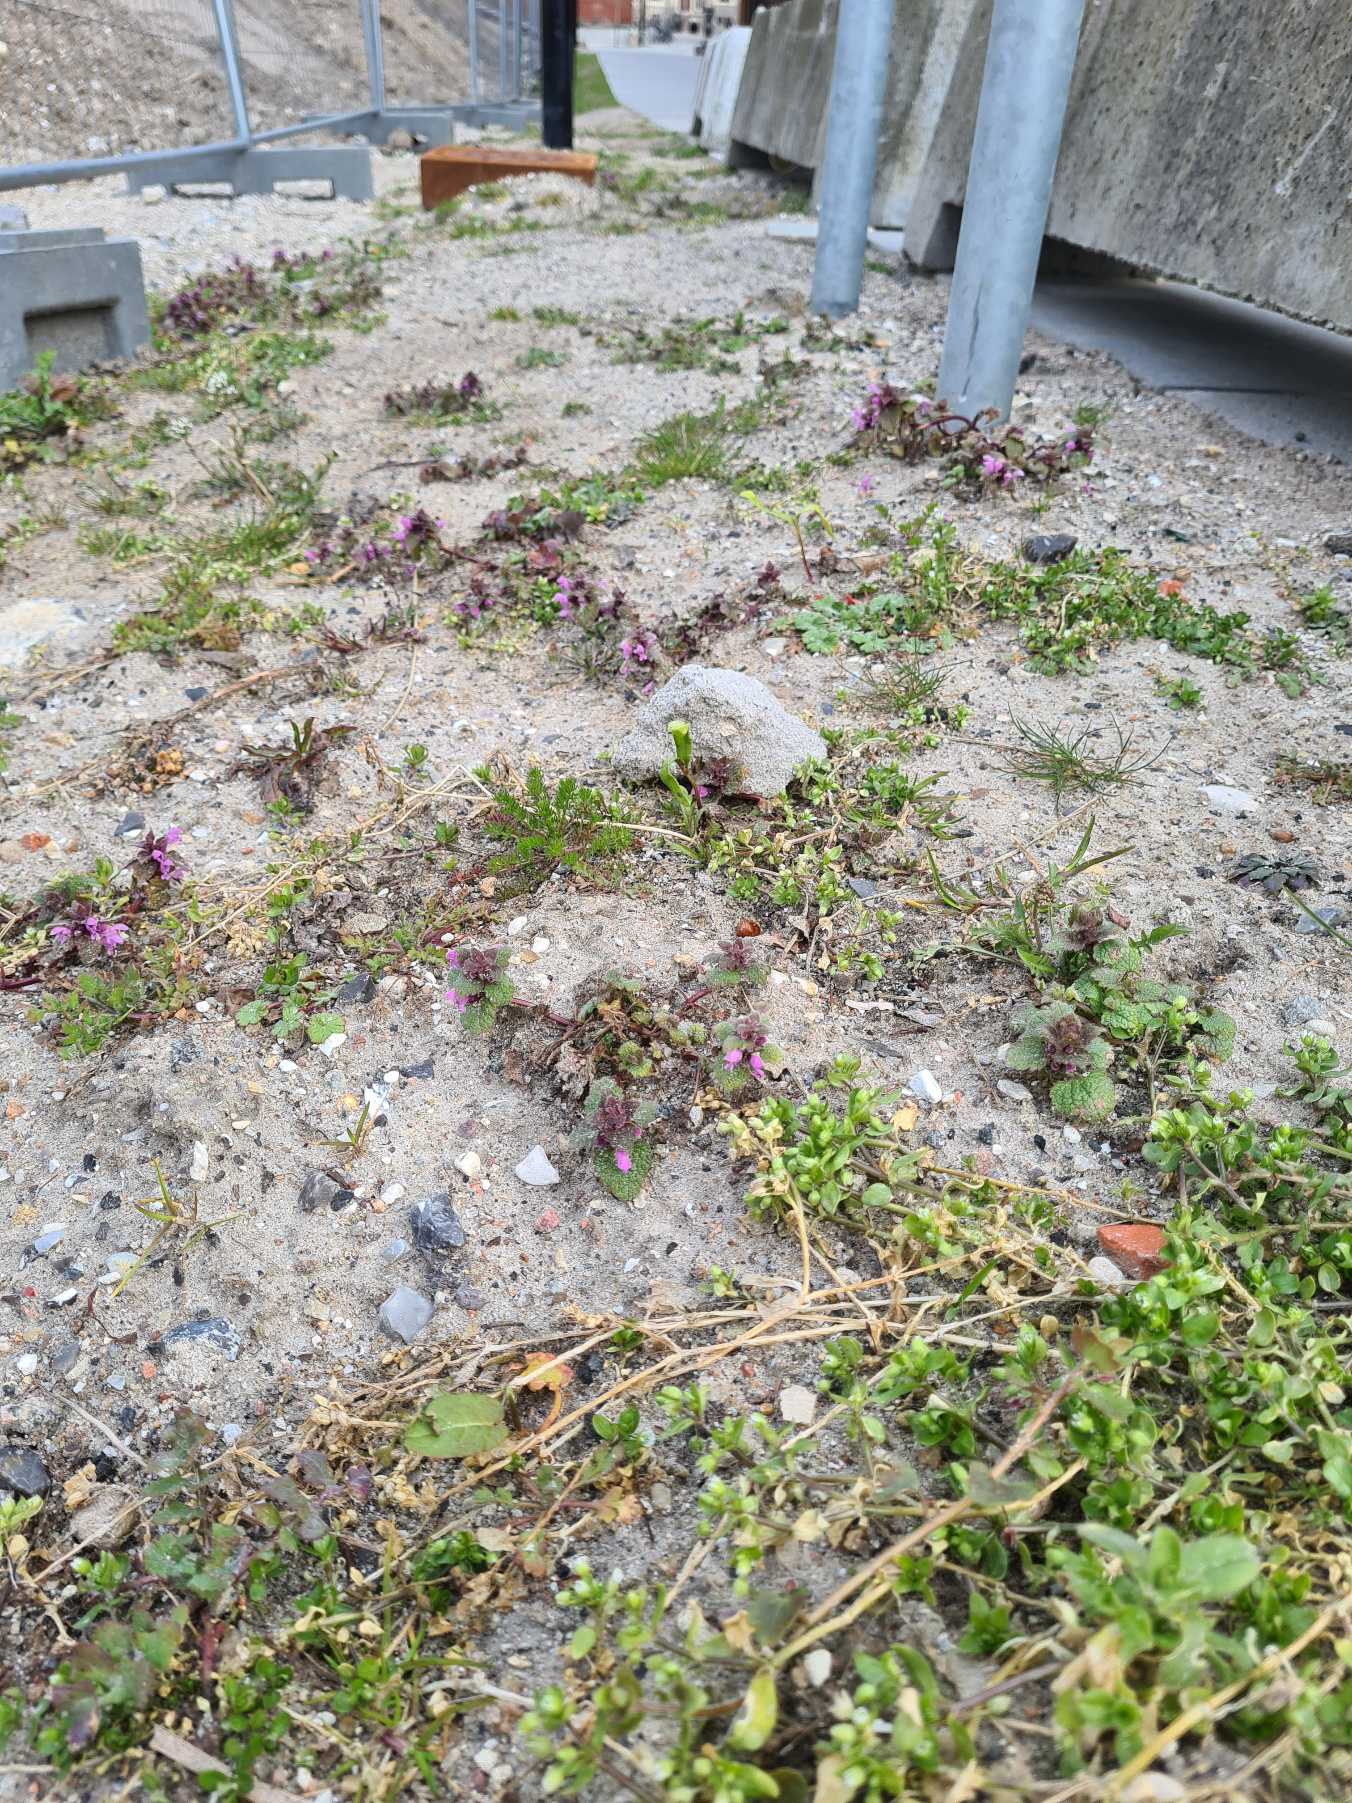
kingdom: Plantae
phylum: Tracheophyta
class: Magnoliopsida
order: Lamiales
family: Lamiaceae
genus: Lamium
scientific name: Lamium purpureum
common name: Rød tvetand
